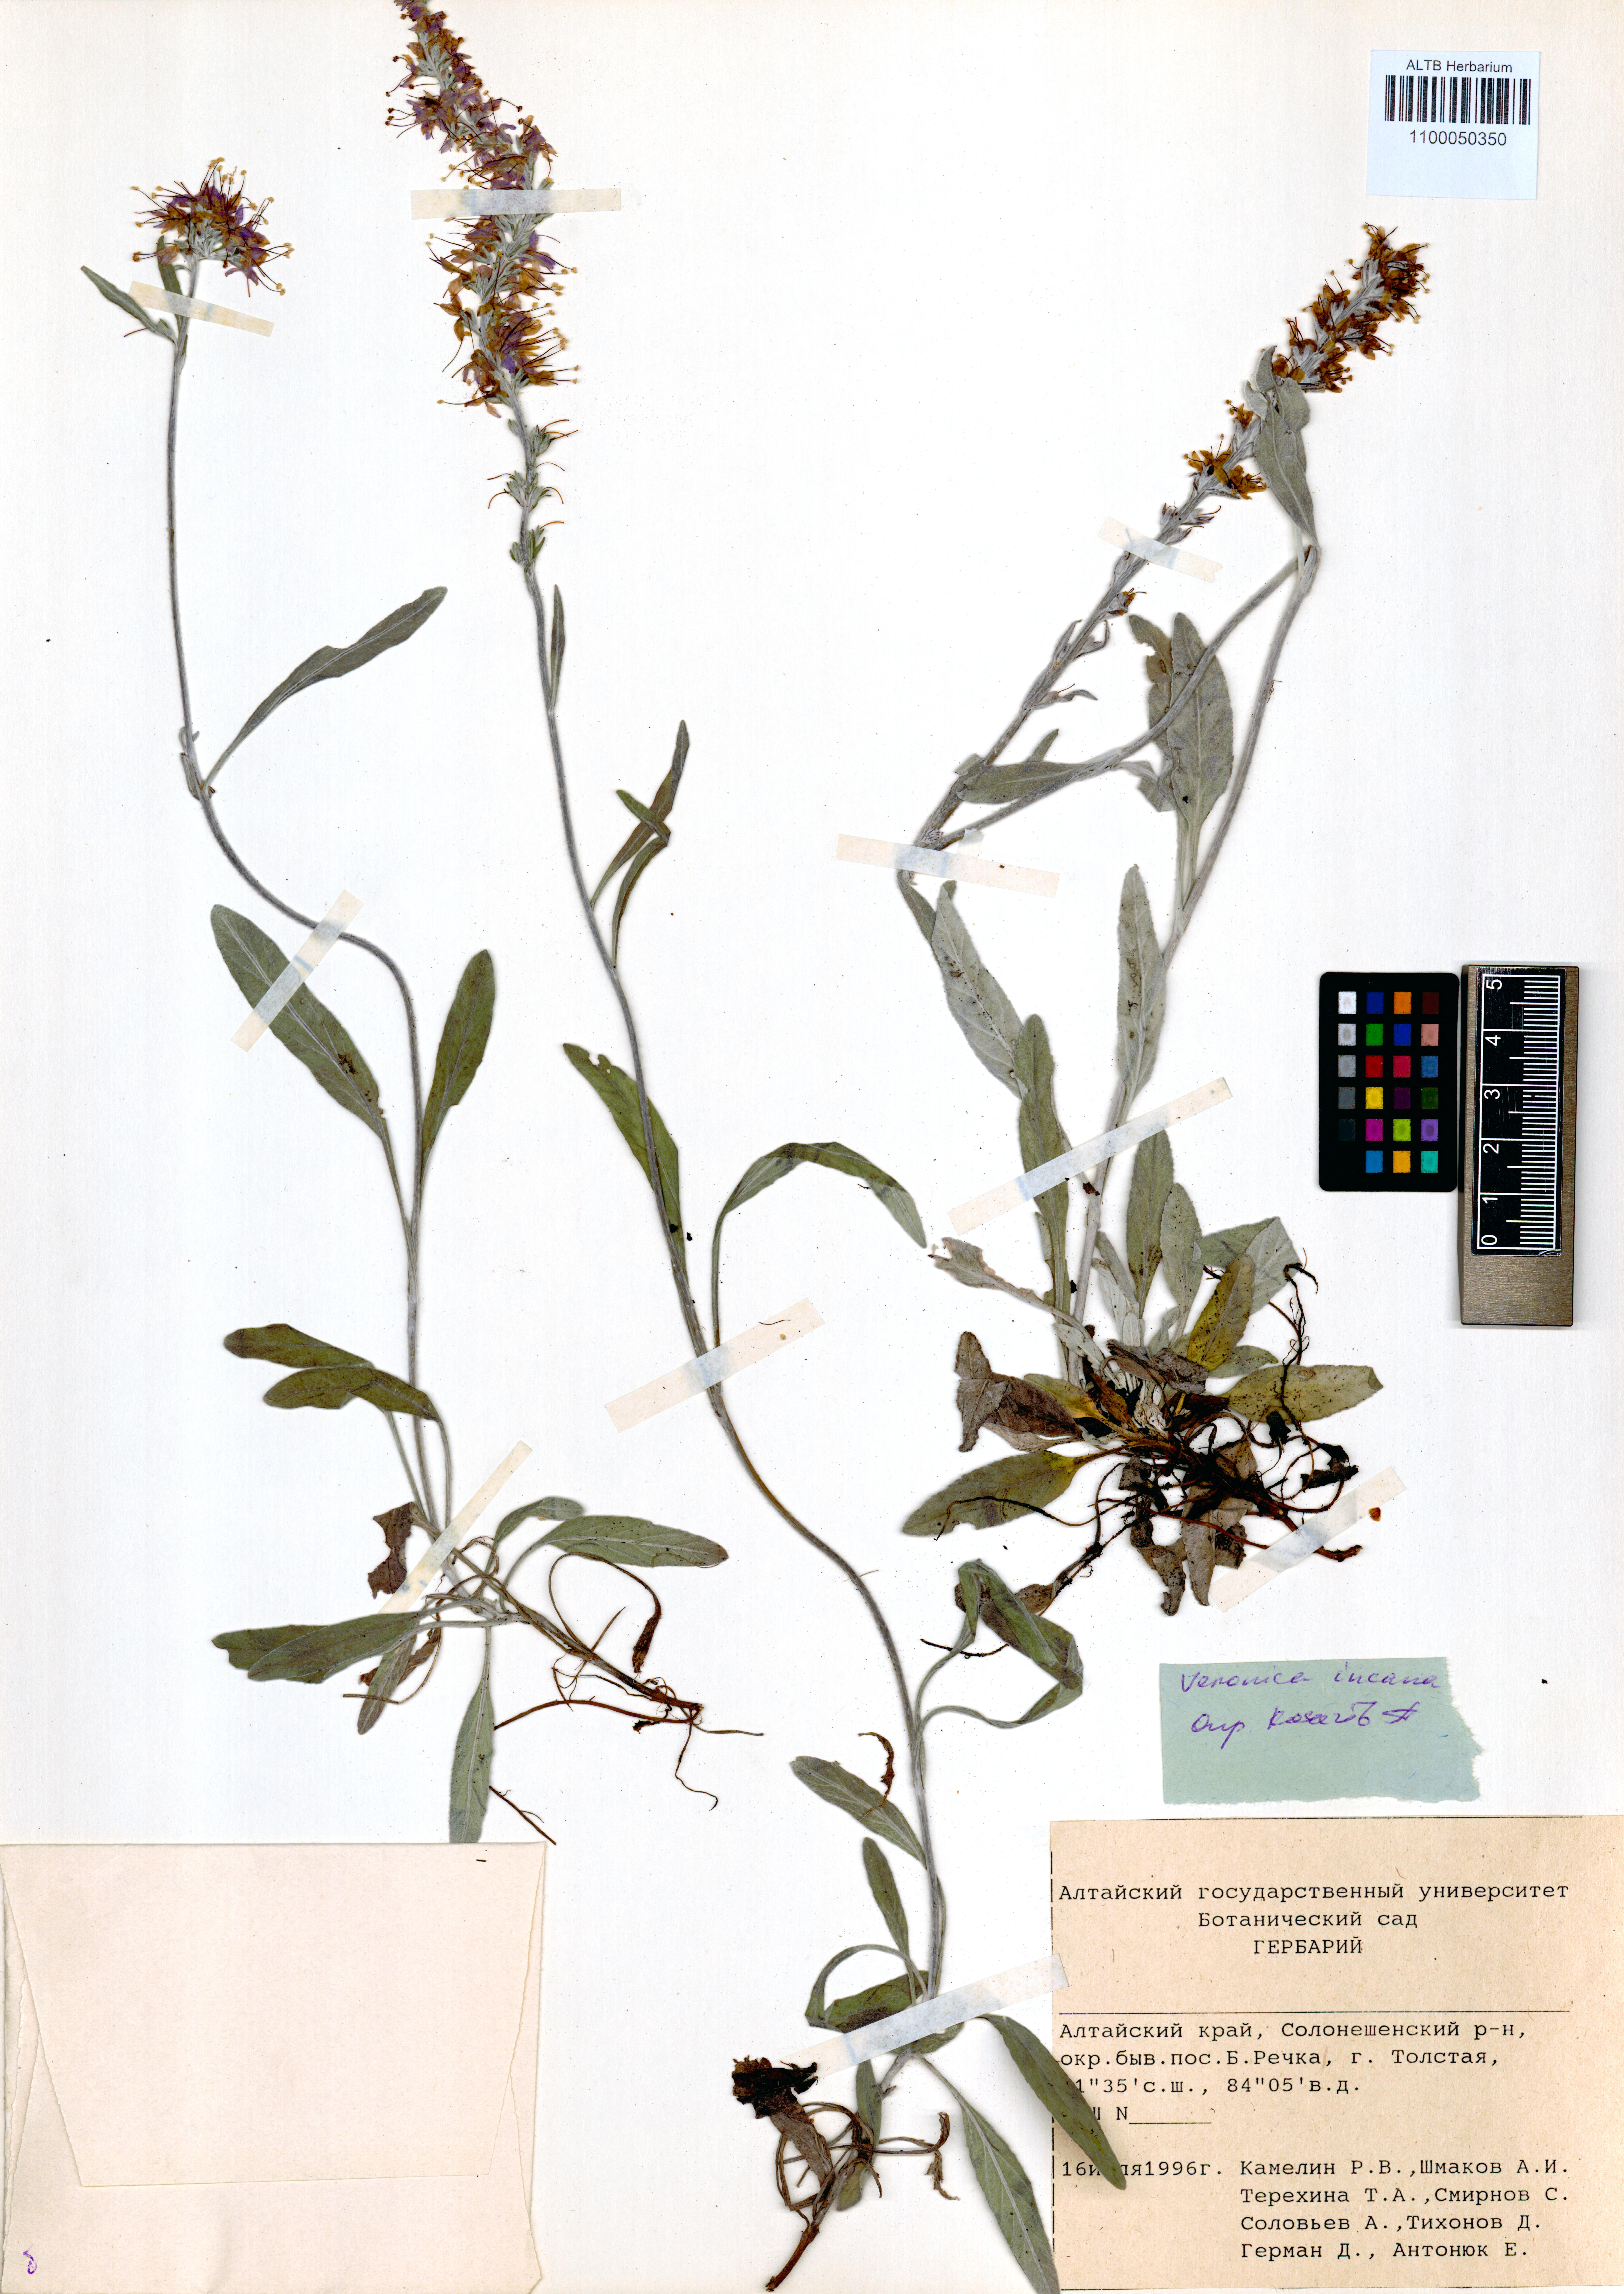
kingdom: Plantae
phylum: Tracheophyta
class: Magnoliopsida
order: Lamiales
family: Plantaginaceae
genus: Veronica
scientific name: Veronica incana
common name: Silver speedwell
